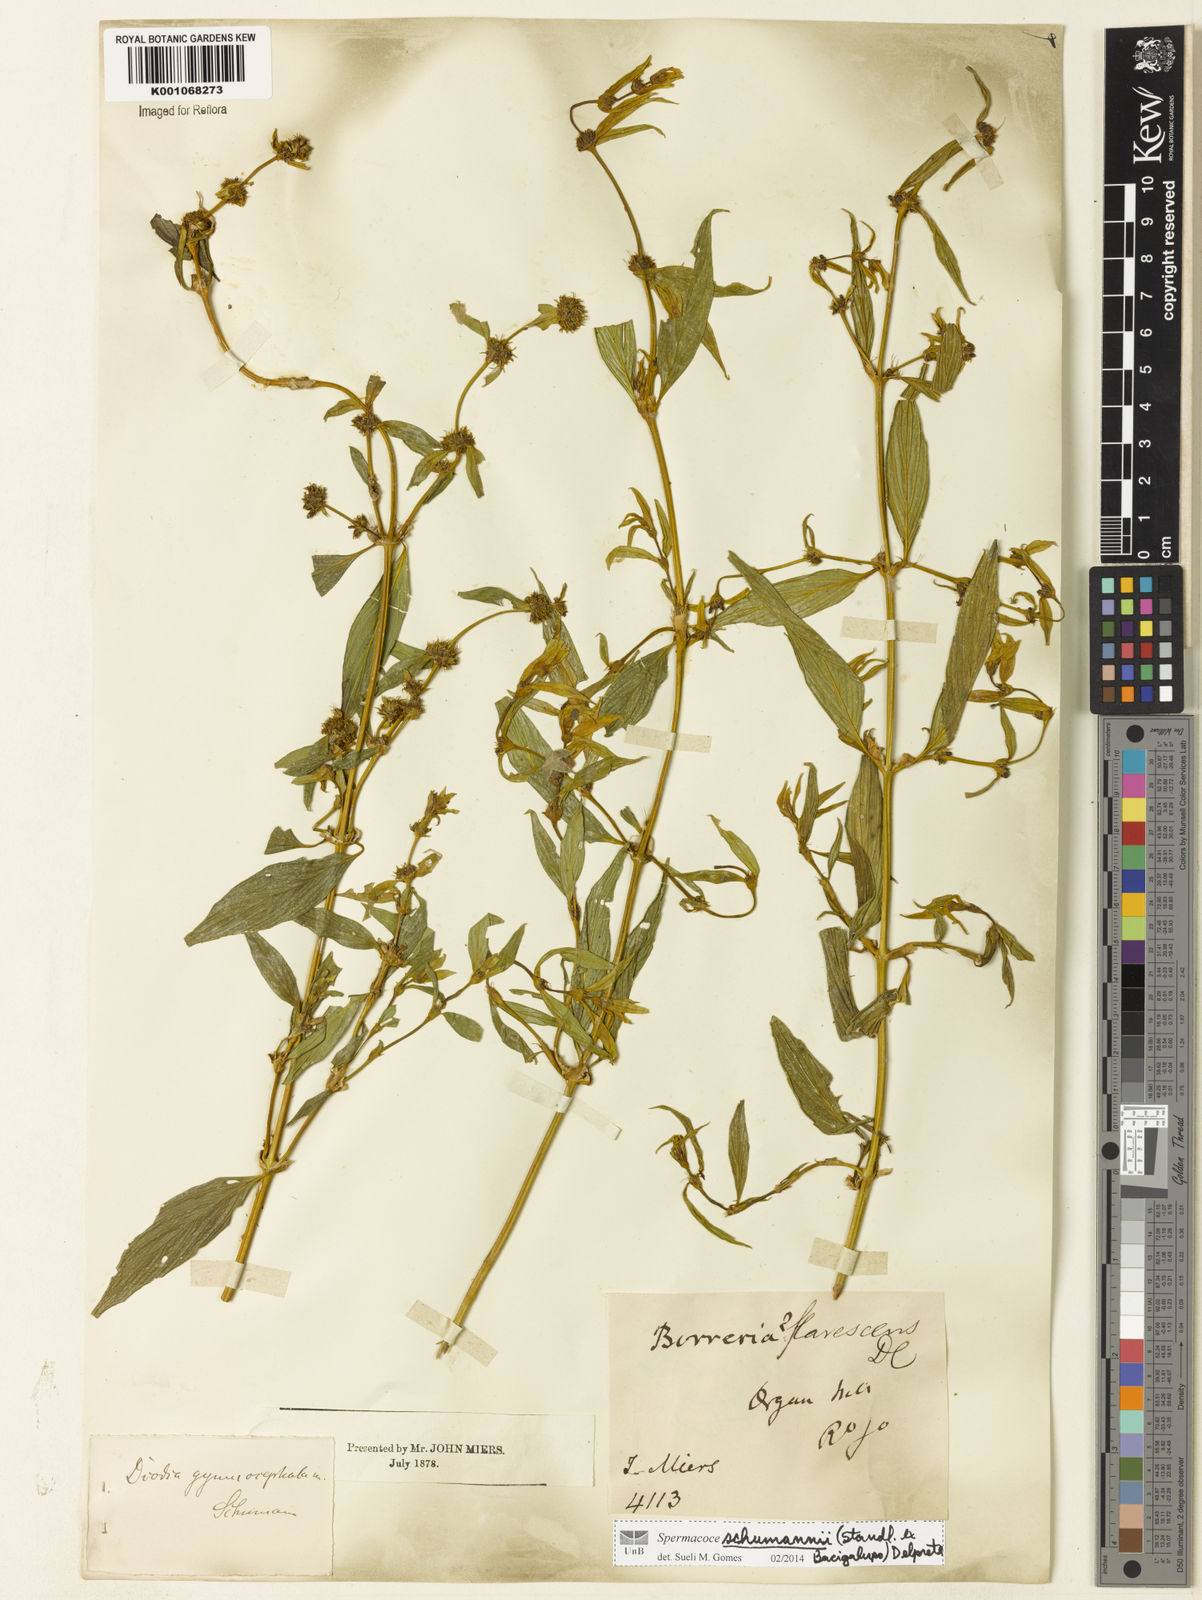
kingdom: Plantae
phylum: Tracheophyta
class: Magnoliopsida
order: Gentianales
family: Rubiaceae
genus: Spermacoce
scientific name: Spermacoce schumannii
